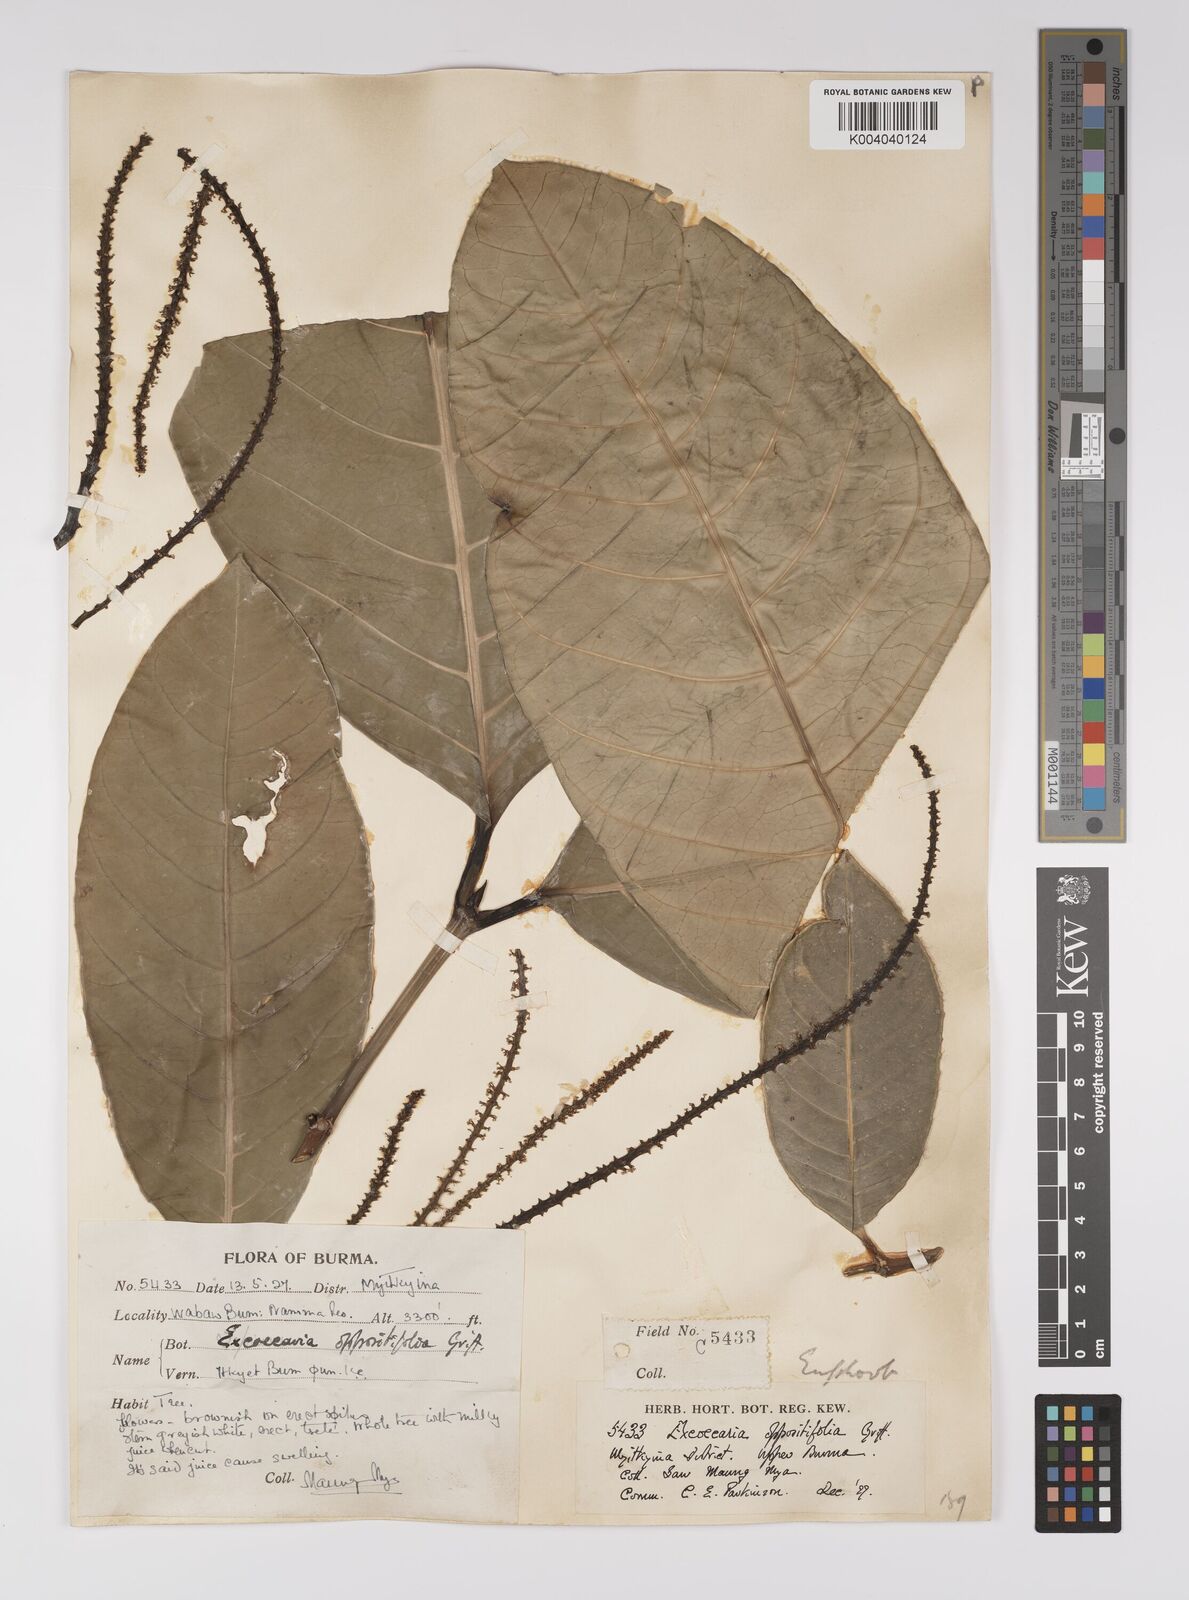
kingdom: Plantae
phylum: Tracheophyta
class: Magnoliopsida
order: Malpighiales
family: Euphorbiaceae
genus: Excoecaria
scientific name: Excoecaria oppositifolia
